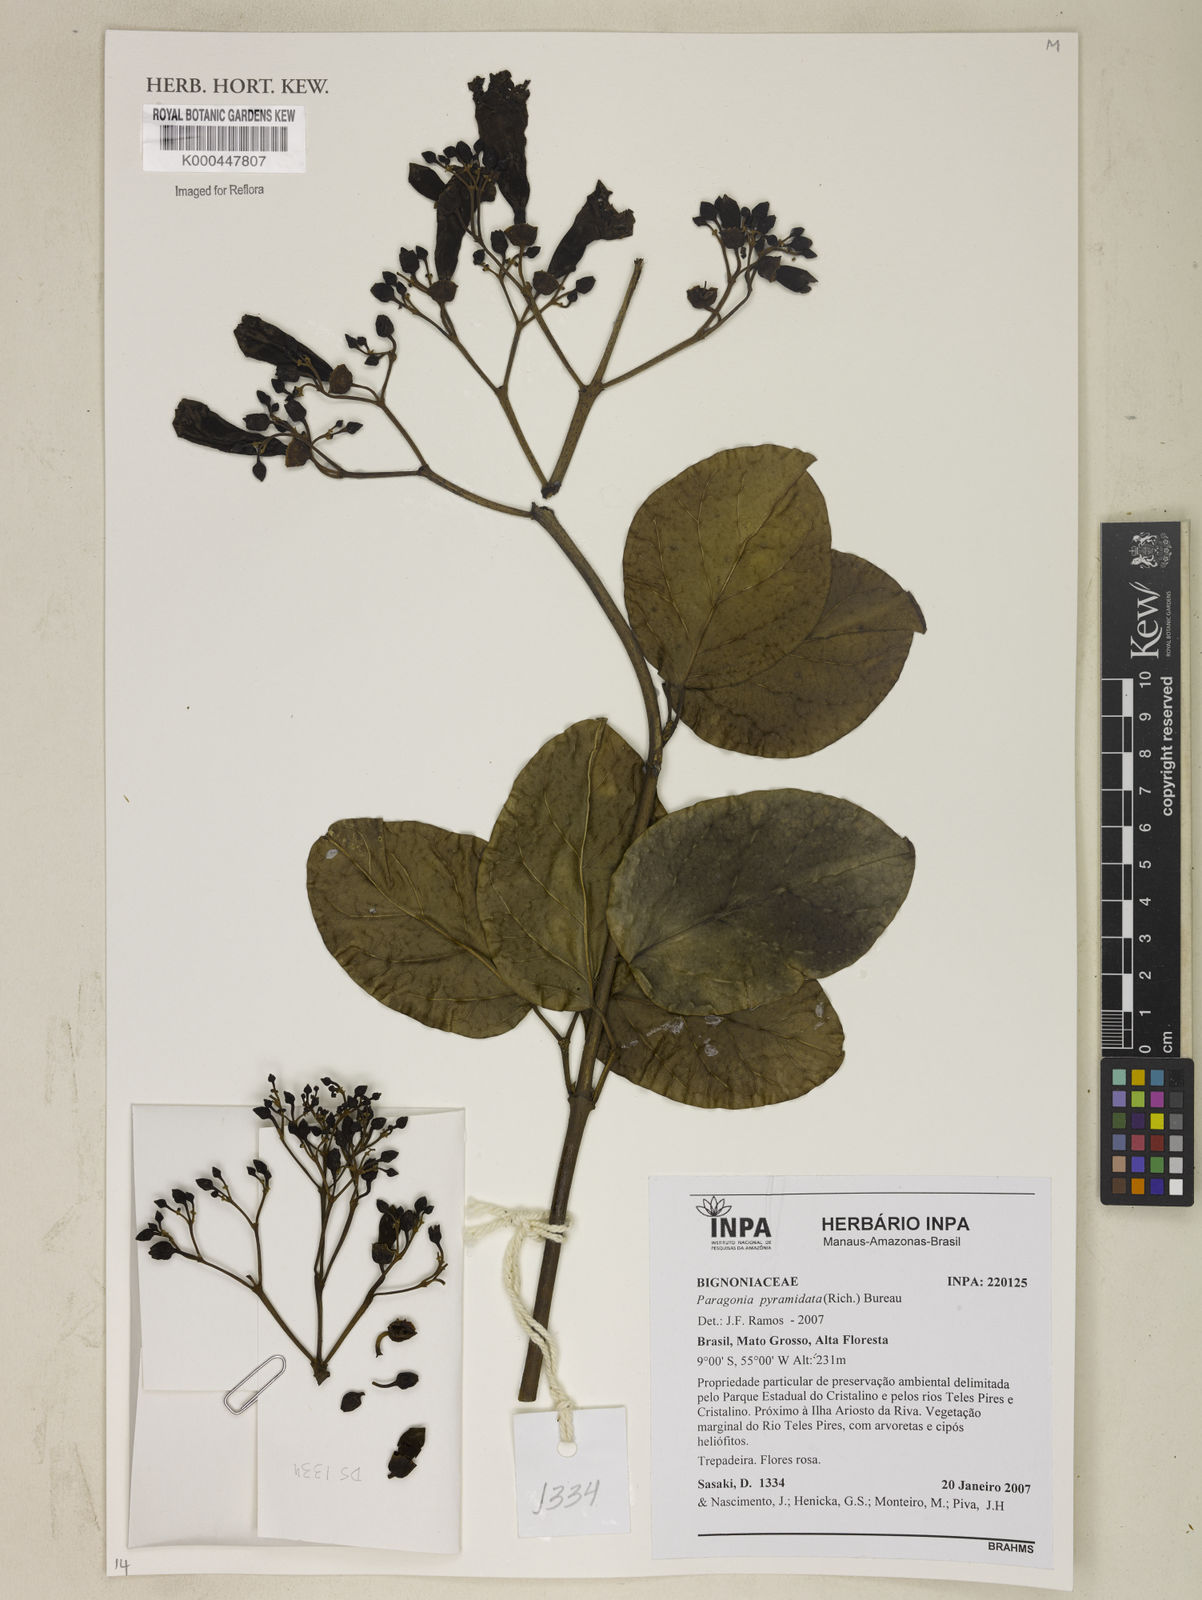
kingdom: Plantae
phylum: Tracheophyta
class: Magnoliopsida
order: Lamiales
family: Bignoniaceae
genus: Tanaecium
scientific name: Tanaecium pyramidatum
